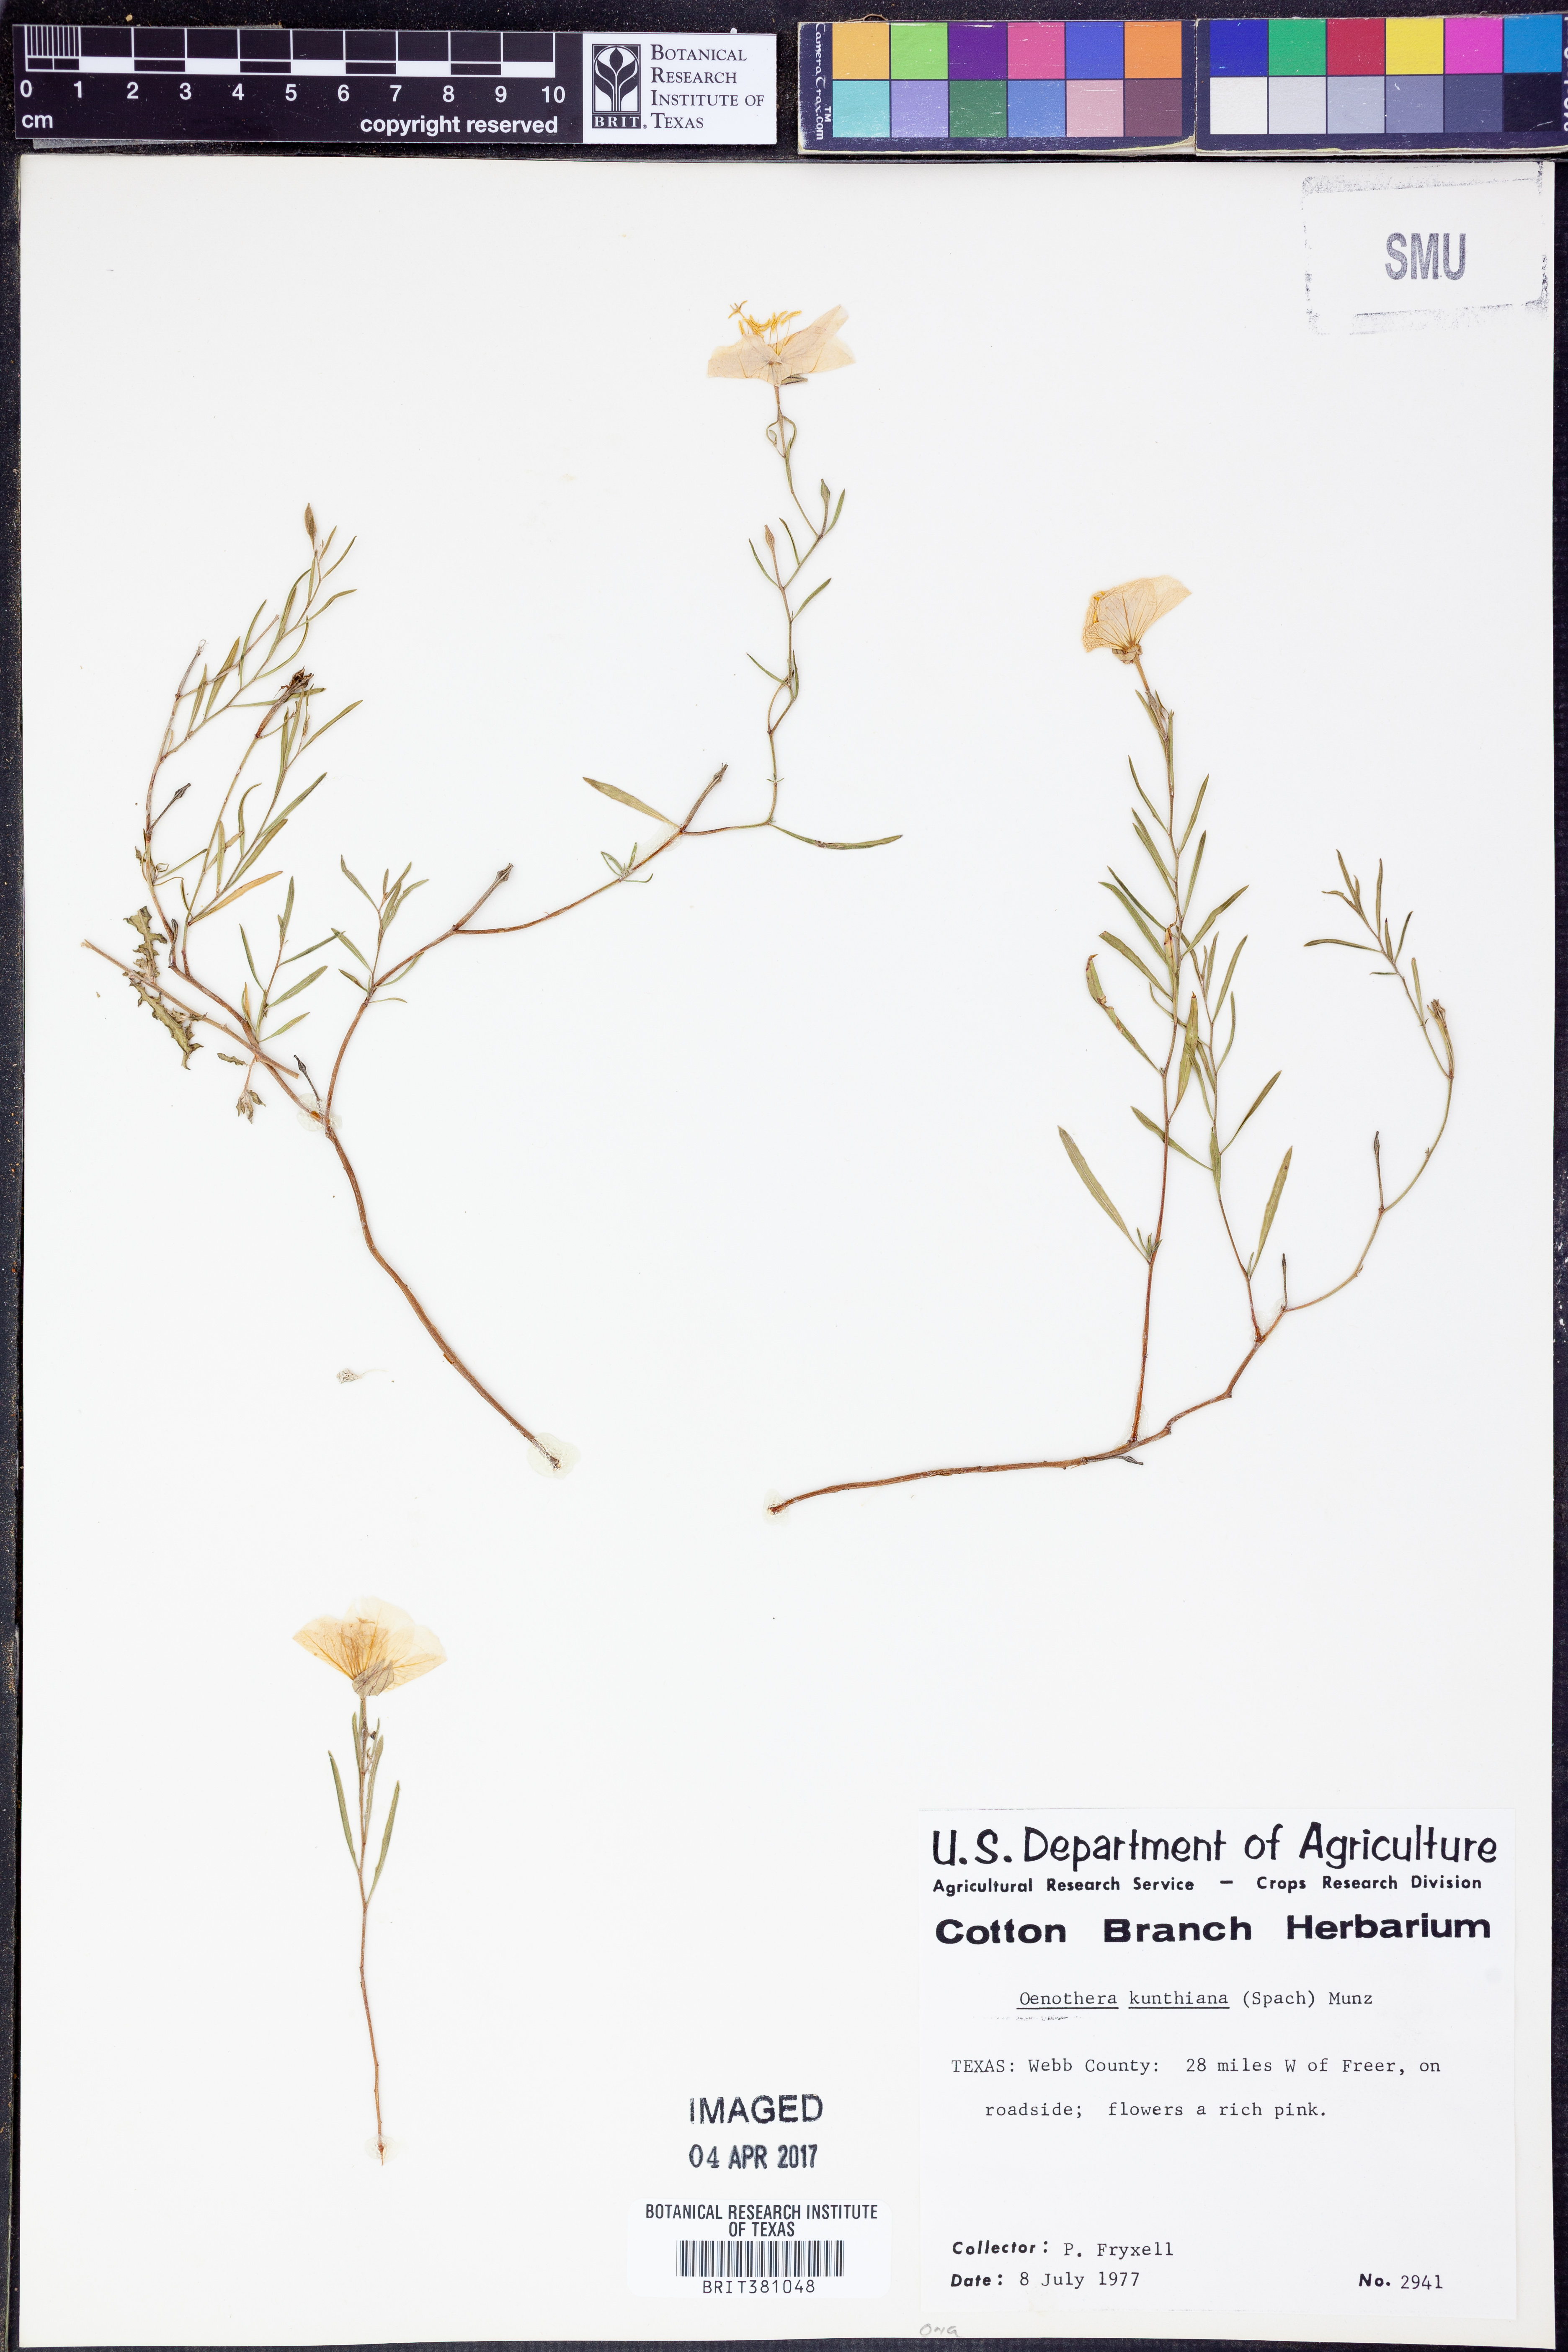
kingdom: Plantae
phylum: Tracheophyta
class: Magnoliopsida
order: Myrtales
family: Onagraceae
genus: Oenothera
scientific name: Oenothera kunthiana
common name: Kunth's evening-primrose
